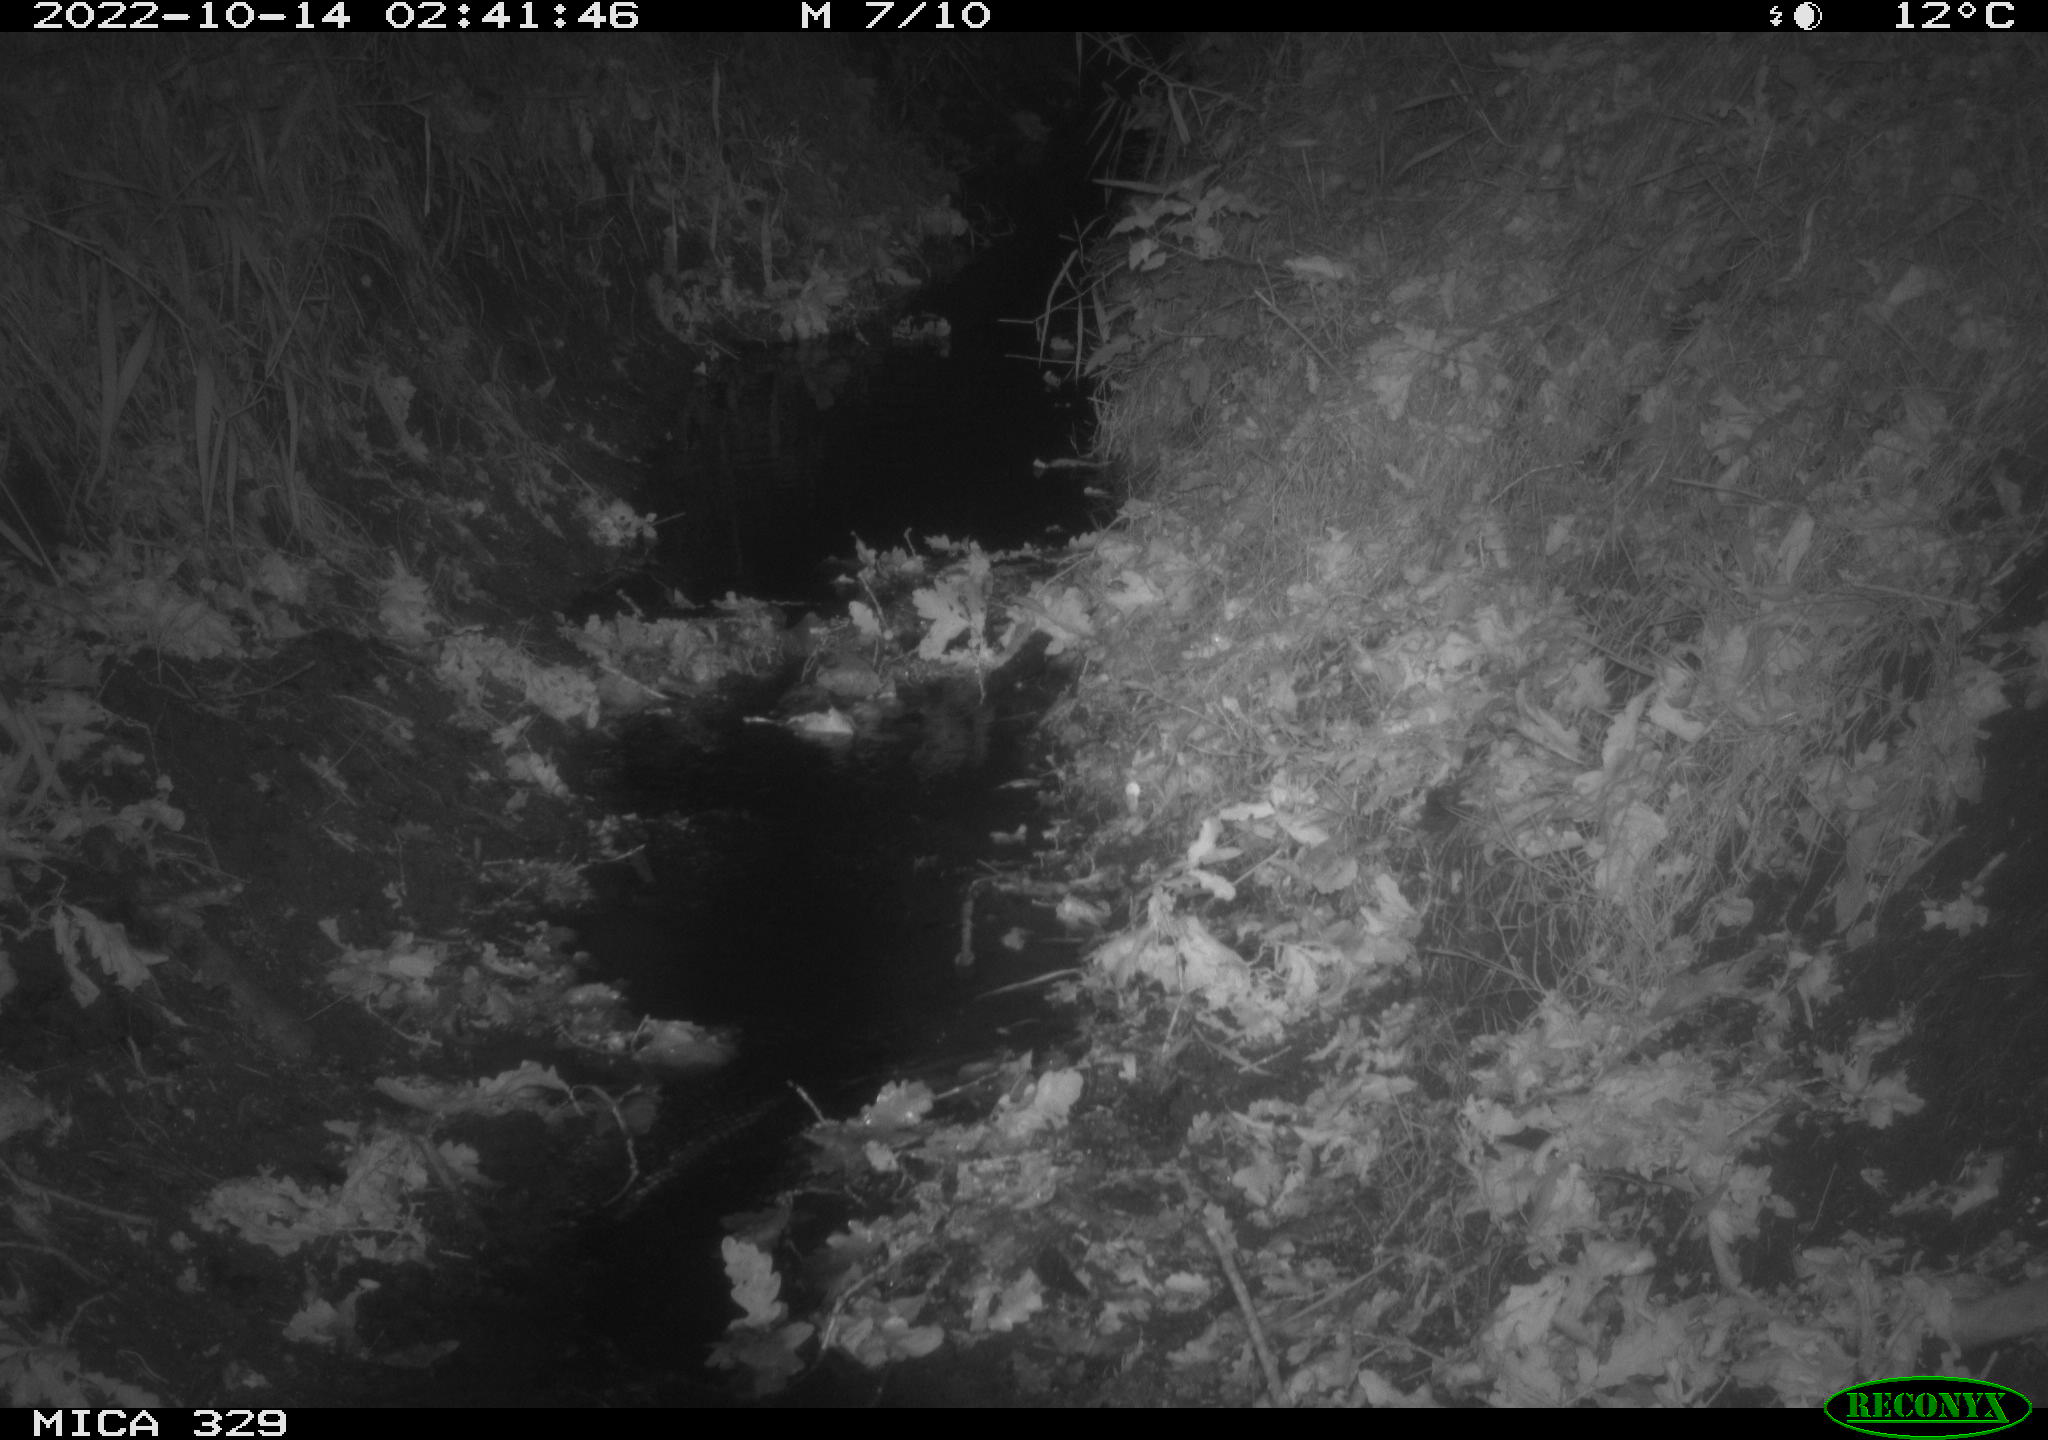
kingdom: Animalia
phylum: Chordata
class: Mammalia
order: Rodentia
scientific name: Rodentia
